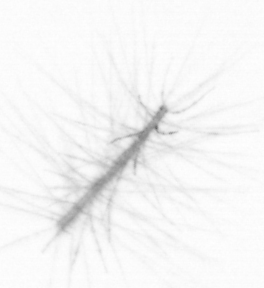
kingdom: Chromista
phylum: Ochrophyta
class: Bacillariophyceae
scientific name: Bacillariophyceae
